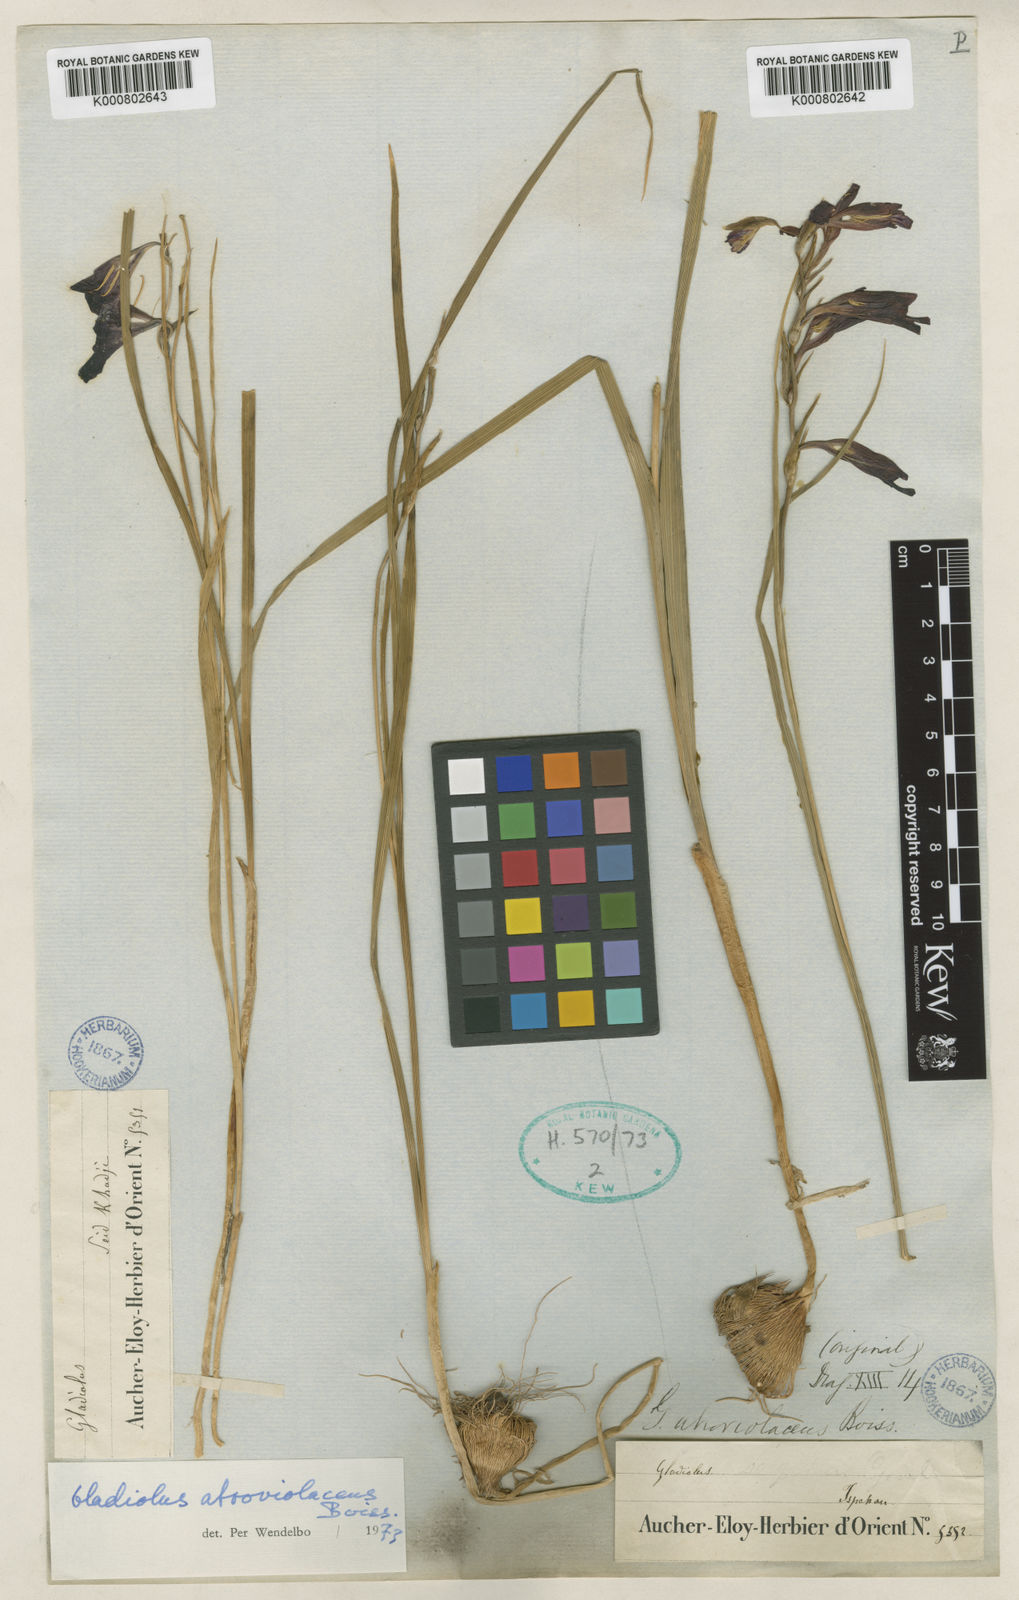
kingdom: Plantae
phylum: Tracheophyta
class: Liliopsida
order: Asparagales
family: Iridaceae
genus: Gladiolus
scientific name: Gladiolus atroviolaceus
